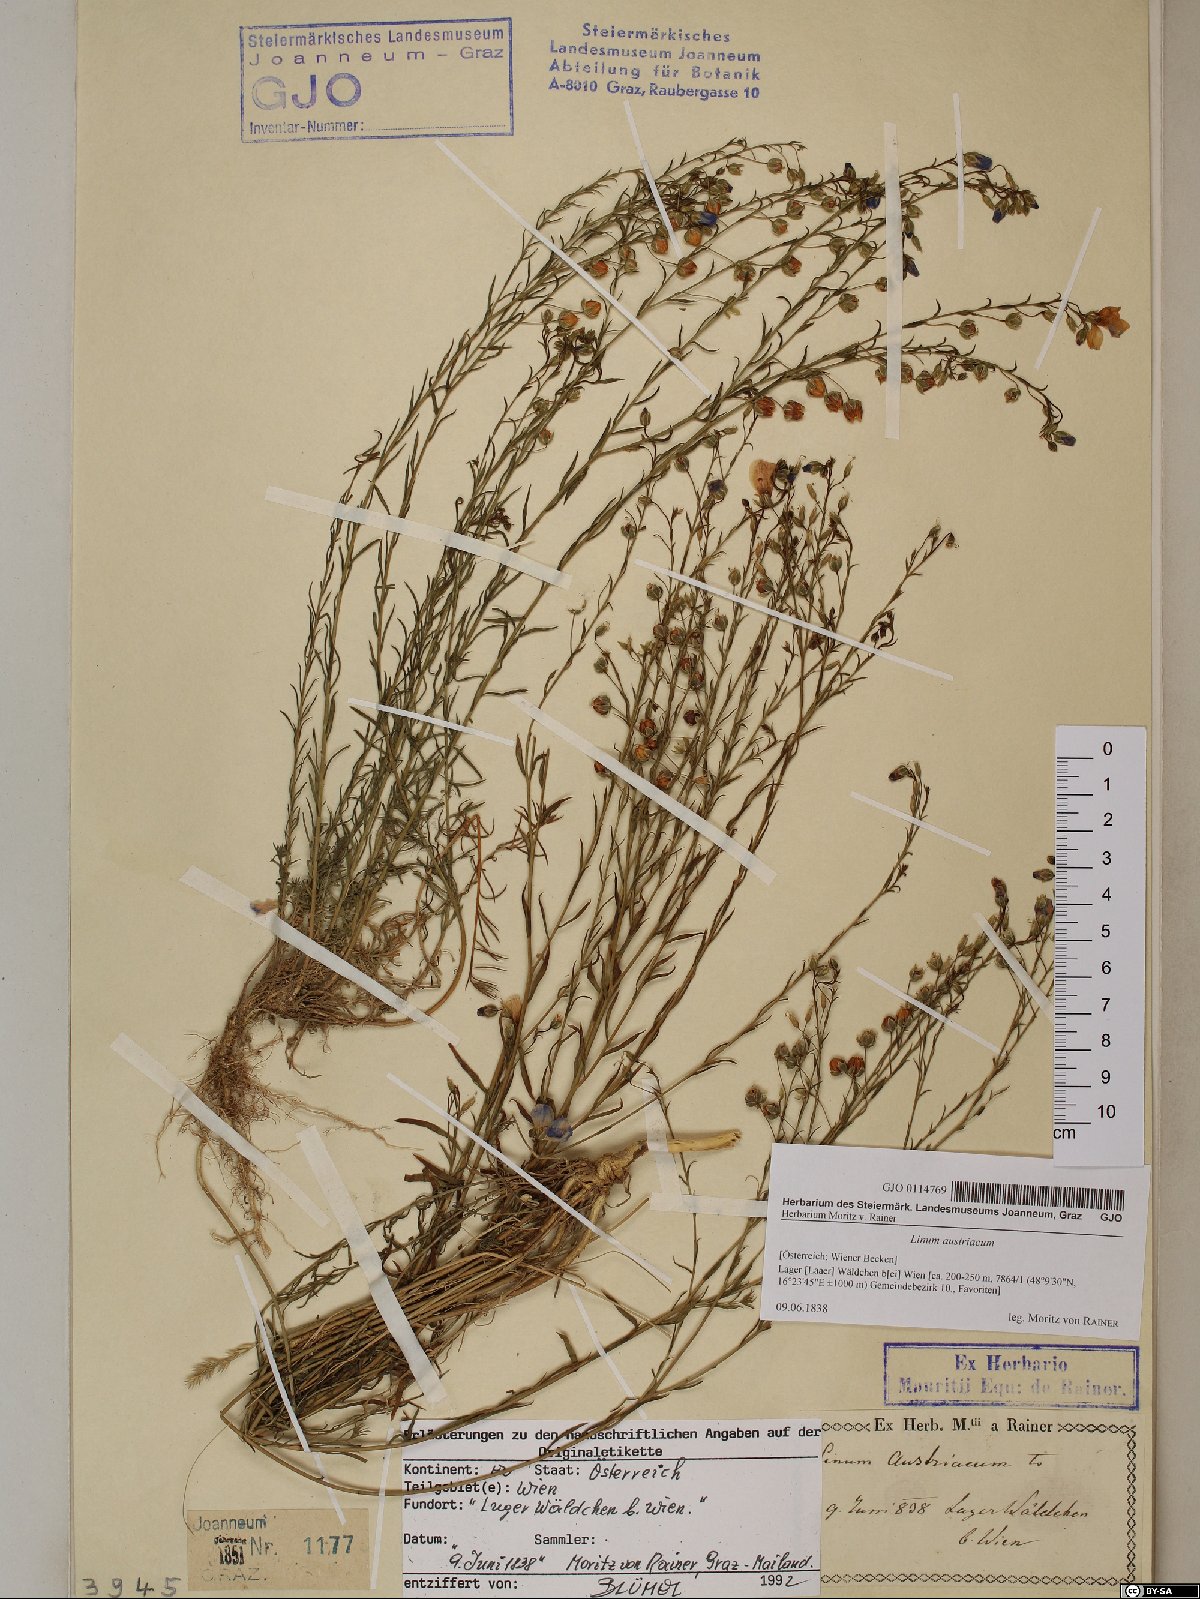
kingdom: Plantae
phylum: Tracheophyta
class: Magnoliopsida
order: Malpighiales
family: Linaceae
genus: Linum
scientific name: Linum austriacum
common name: Austrian flax
